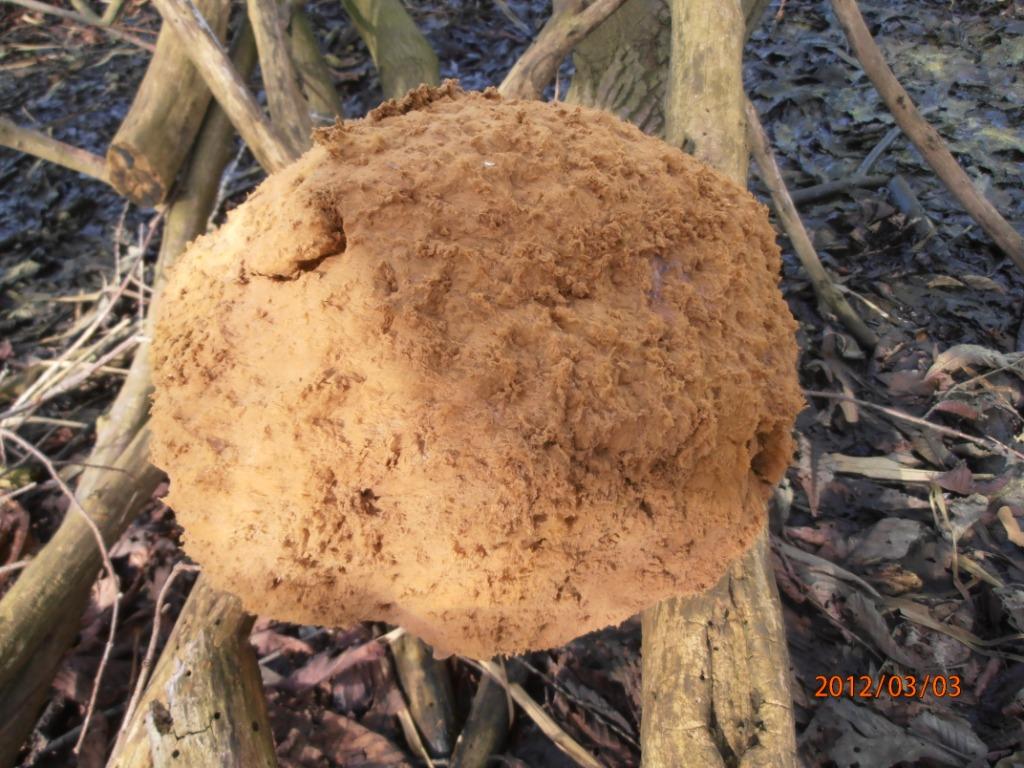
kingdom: Fungi
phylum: Basidiomycota
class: Agaricomycetes
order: Agaricales
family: Lycoperdaceae
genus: Calvatia
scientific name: Calvatia gigantea
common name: kæmpestøvbold
